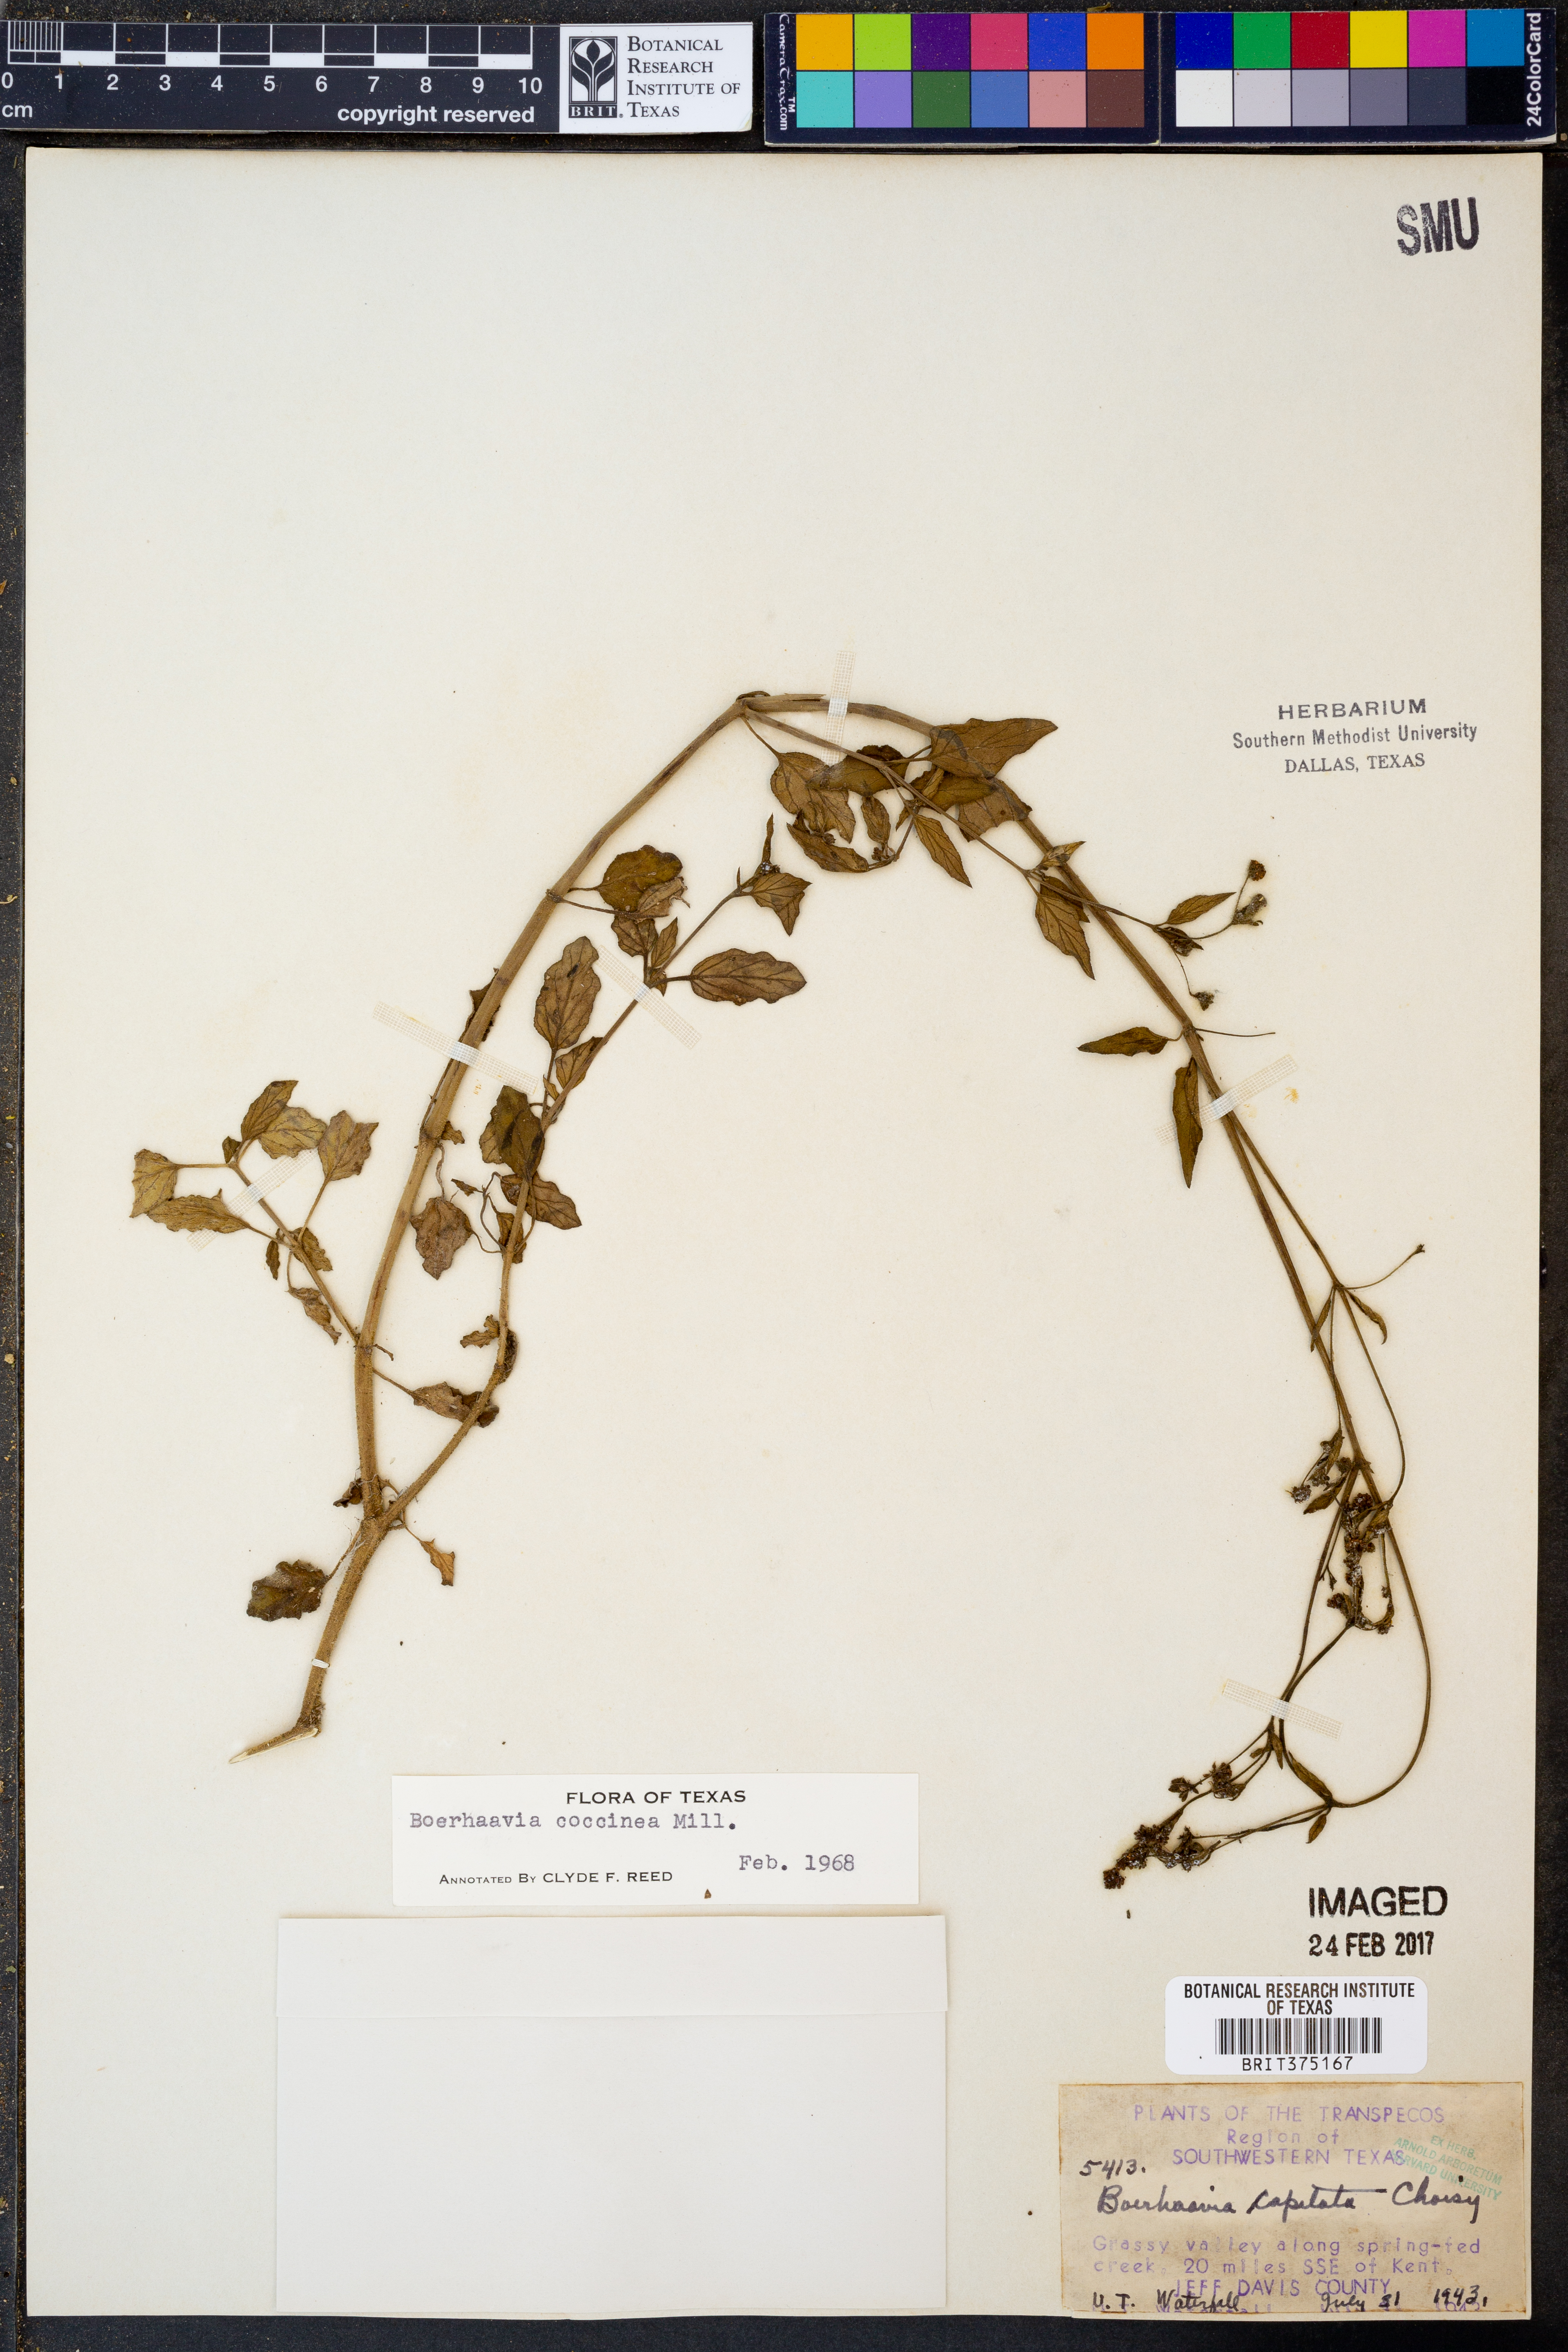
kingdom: Plantae
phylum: Tracheophyta
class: Magnoliopsida
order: Caryophyllales
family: Nyctaginaceae
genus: Boerhavia
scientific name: Boerhavia coccinea
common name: Scarlet spiderling
